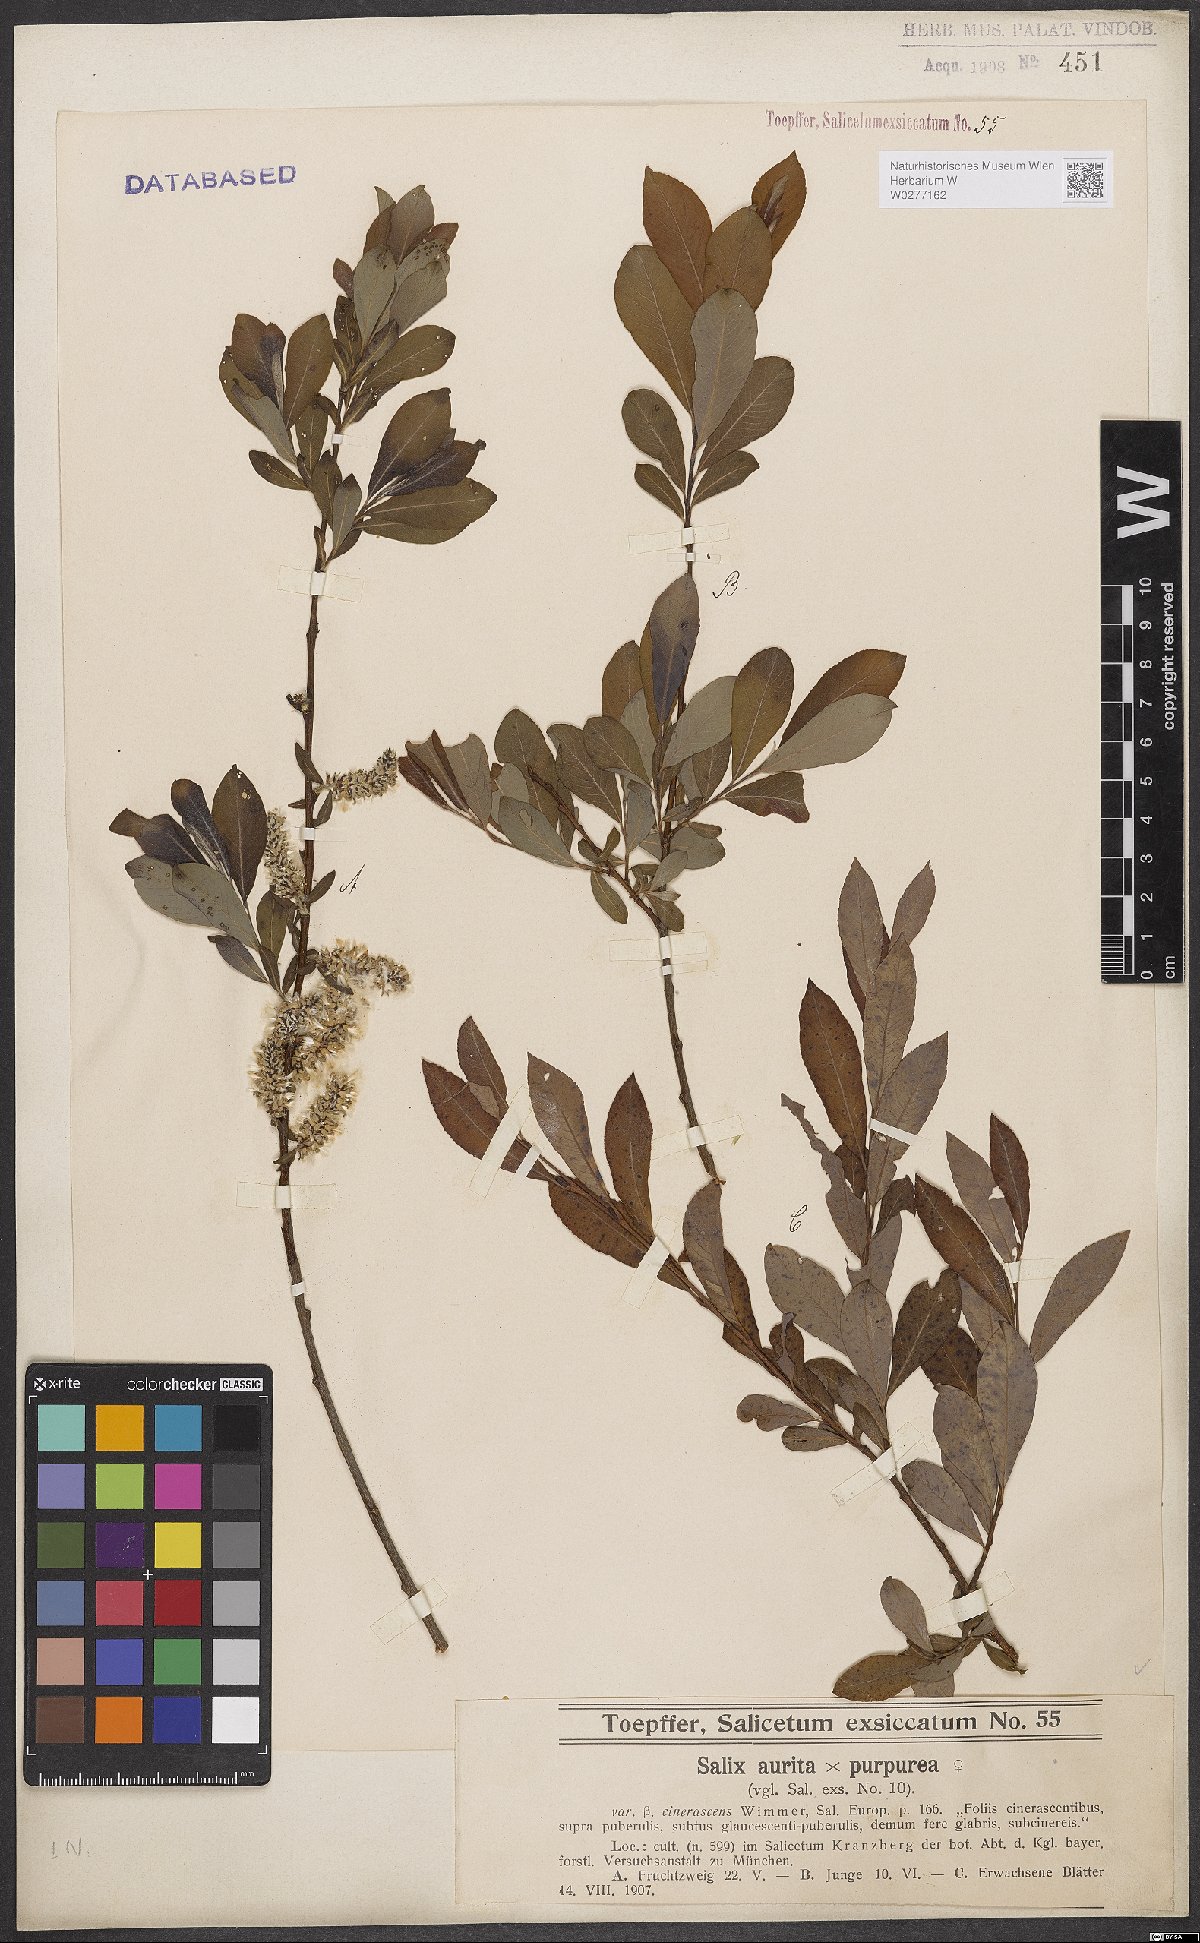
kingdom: Plantae
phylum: Tracheophyta
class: Magnoliopsida
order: Malpighiales
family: Salicaceae
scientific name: Salicaceae
